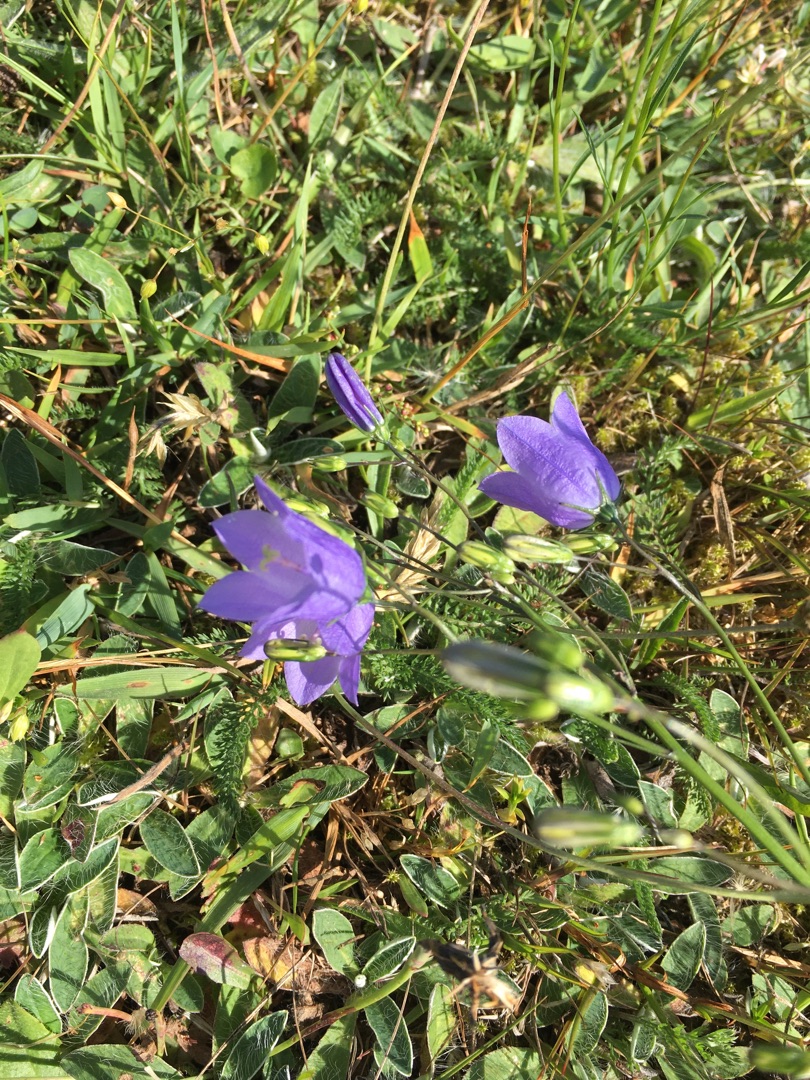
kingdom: Plantae
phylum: Tracheophyta
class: Magnoliopsida
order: Asterales
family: Campanulaceae
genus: Campanula
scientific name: Campanula rotundifolia
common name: Liden klokke
